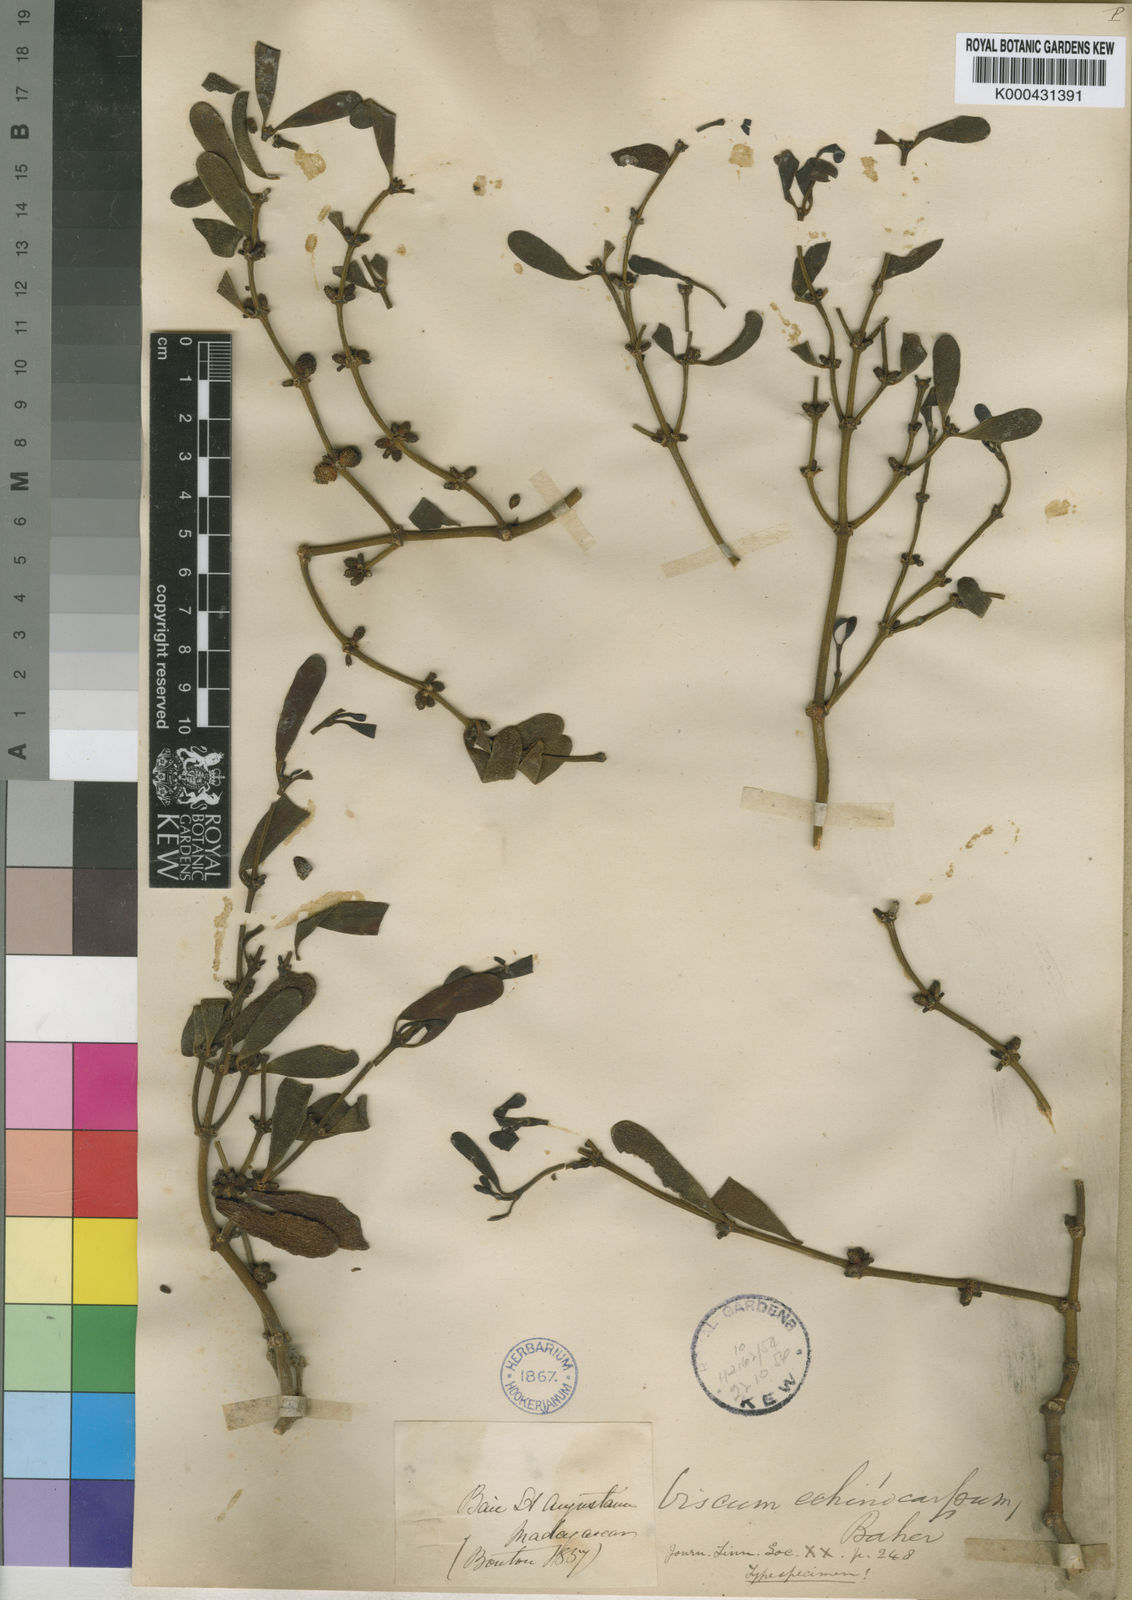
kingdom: Plantae
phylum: Tracheophyta
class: Magnoliopsida
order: Santalales
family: Viscaceae
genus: Viscum
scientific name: Viscum echinocarpum
